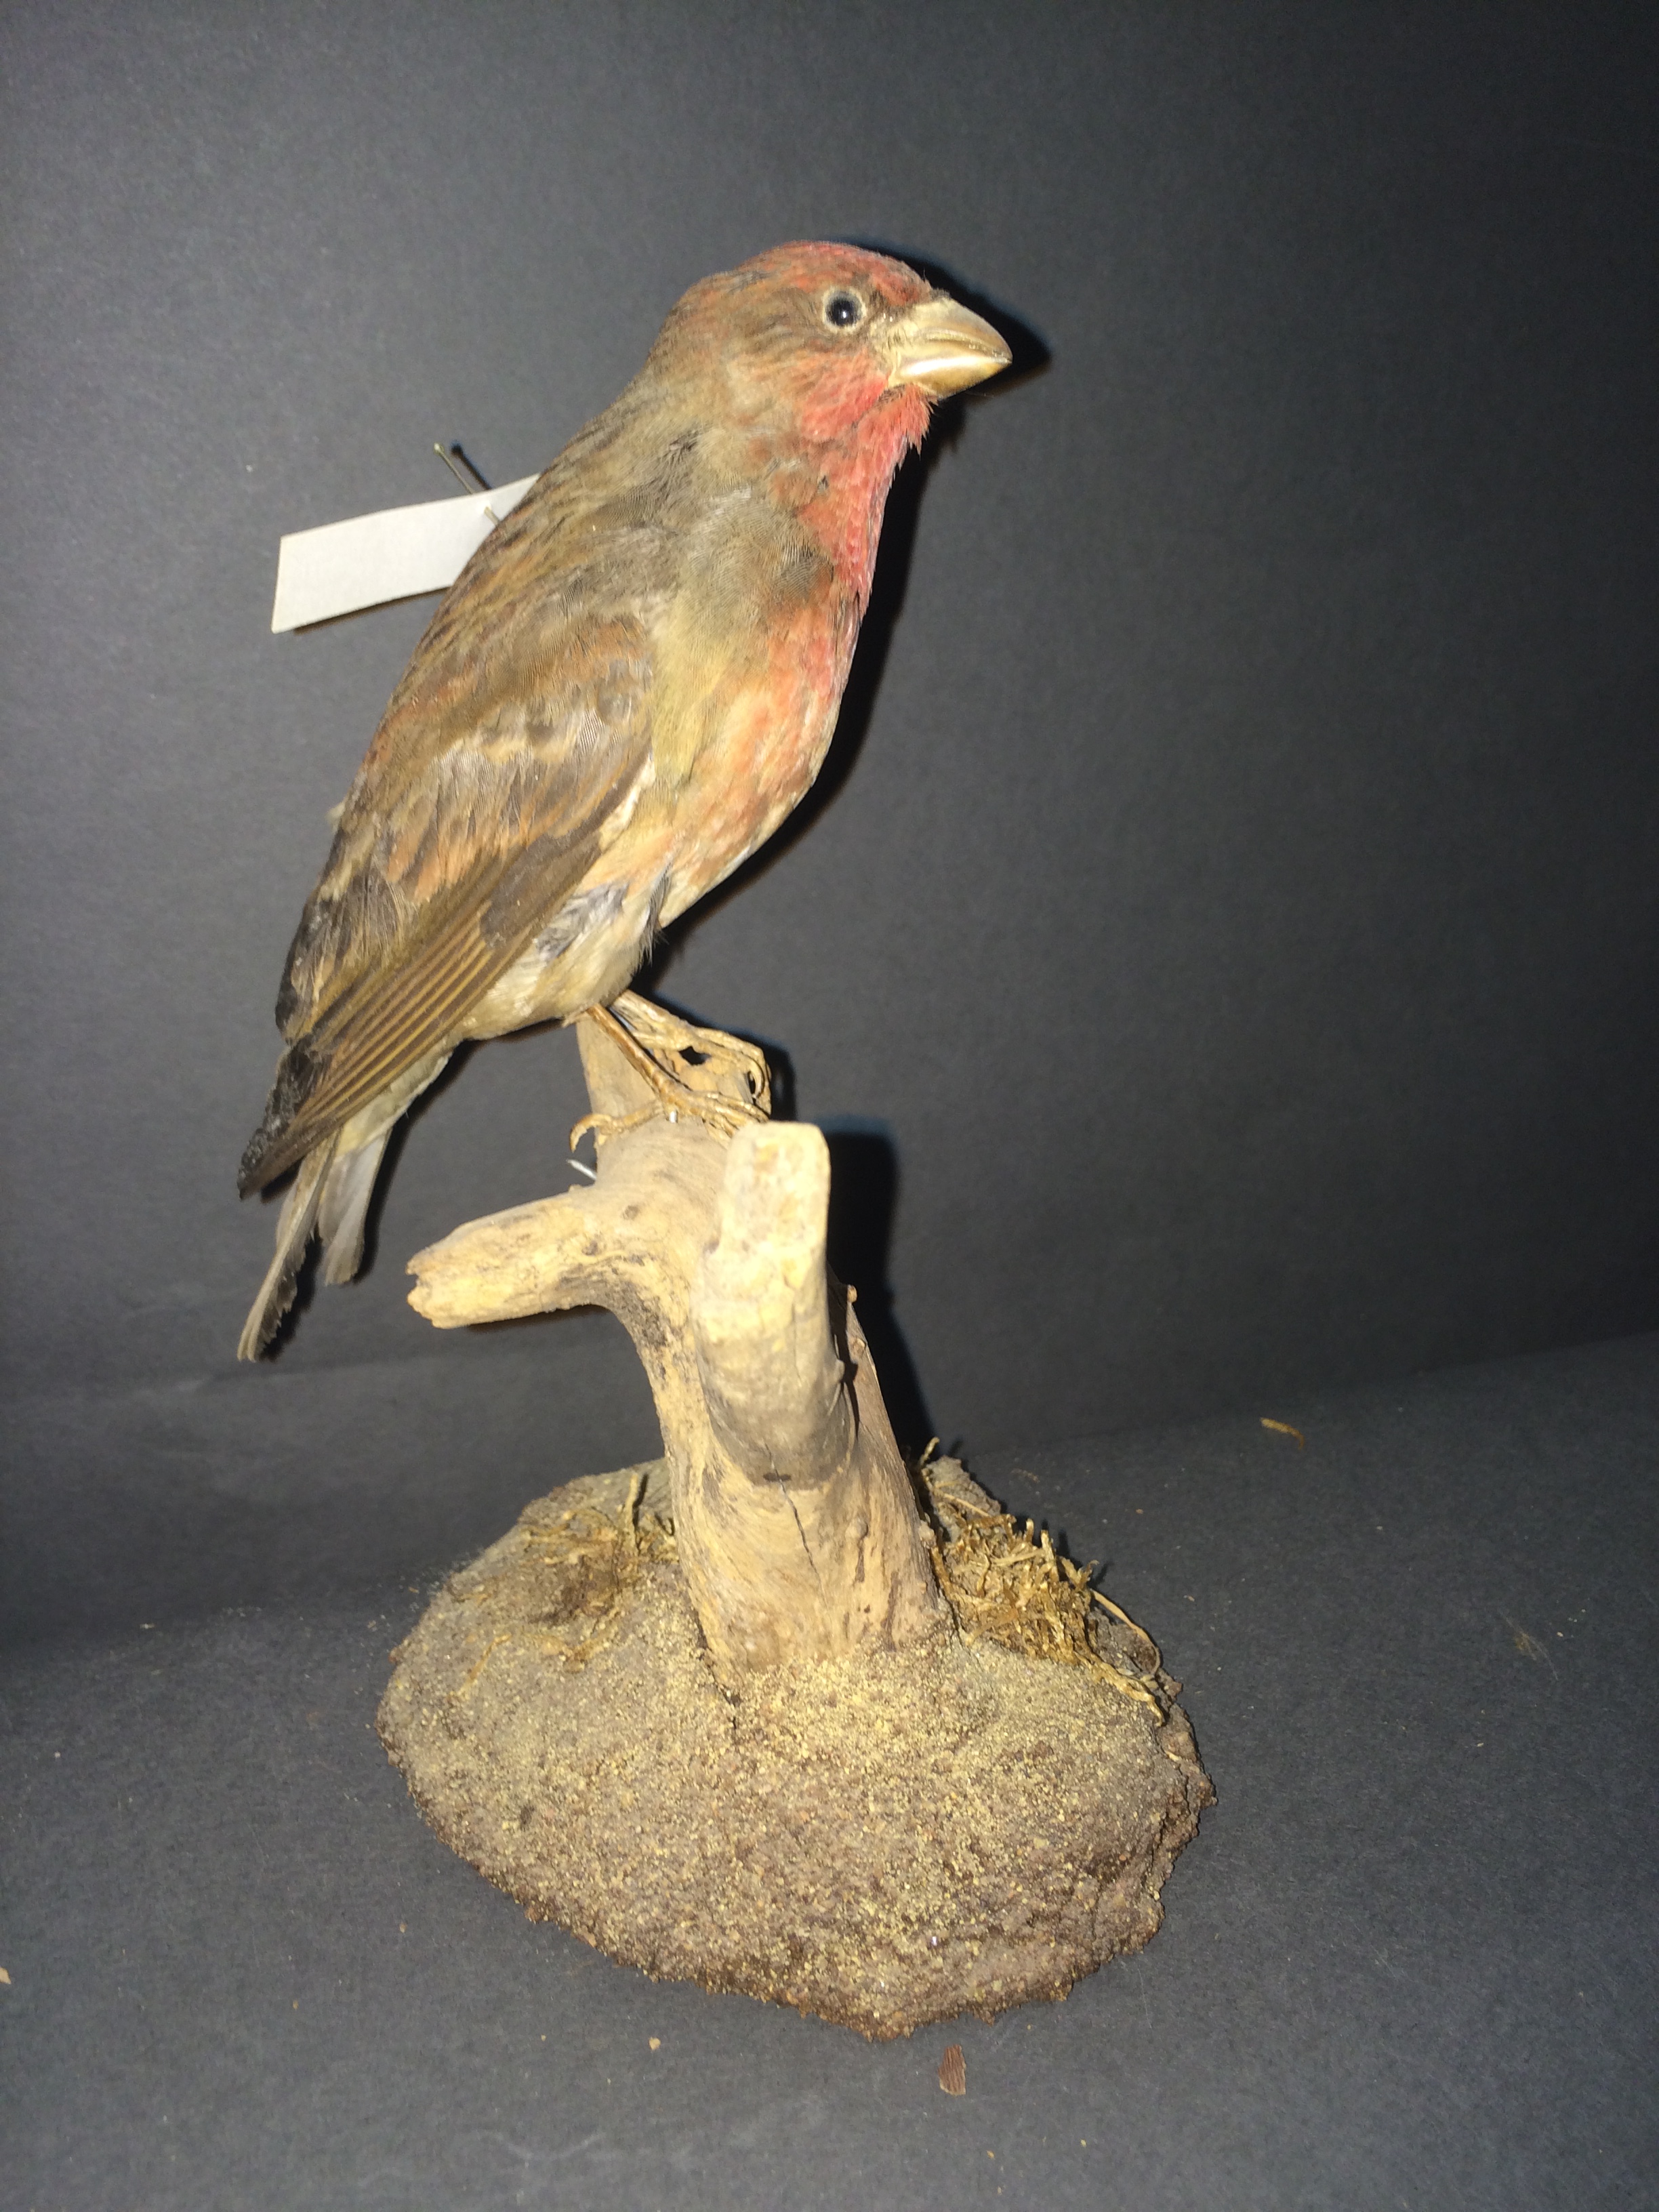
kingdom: Animalia
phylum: Chordata
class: Aves
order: Passeriformes
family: Fringillidae
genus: Carpodacus
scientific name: Carpodacus erythrinus
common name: Common rosefinch
